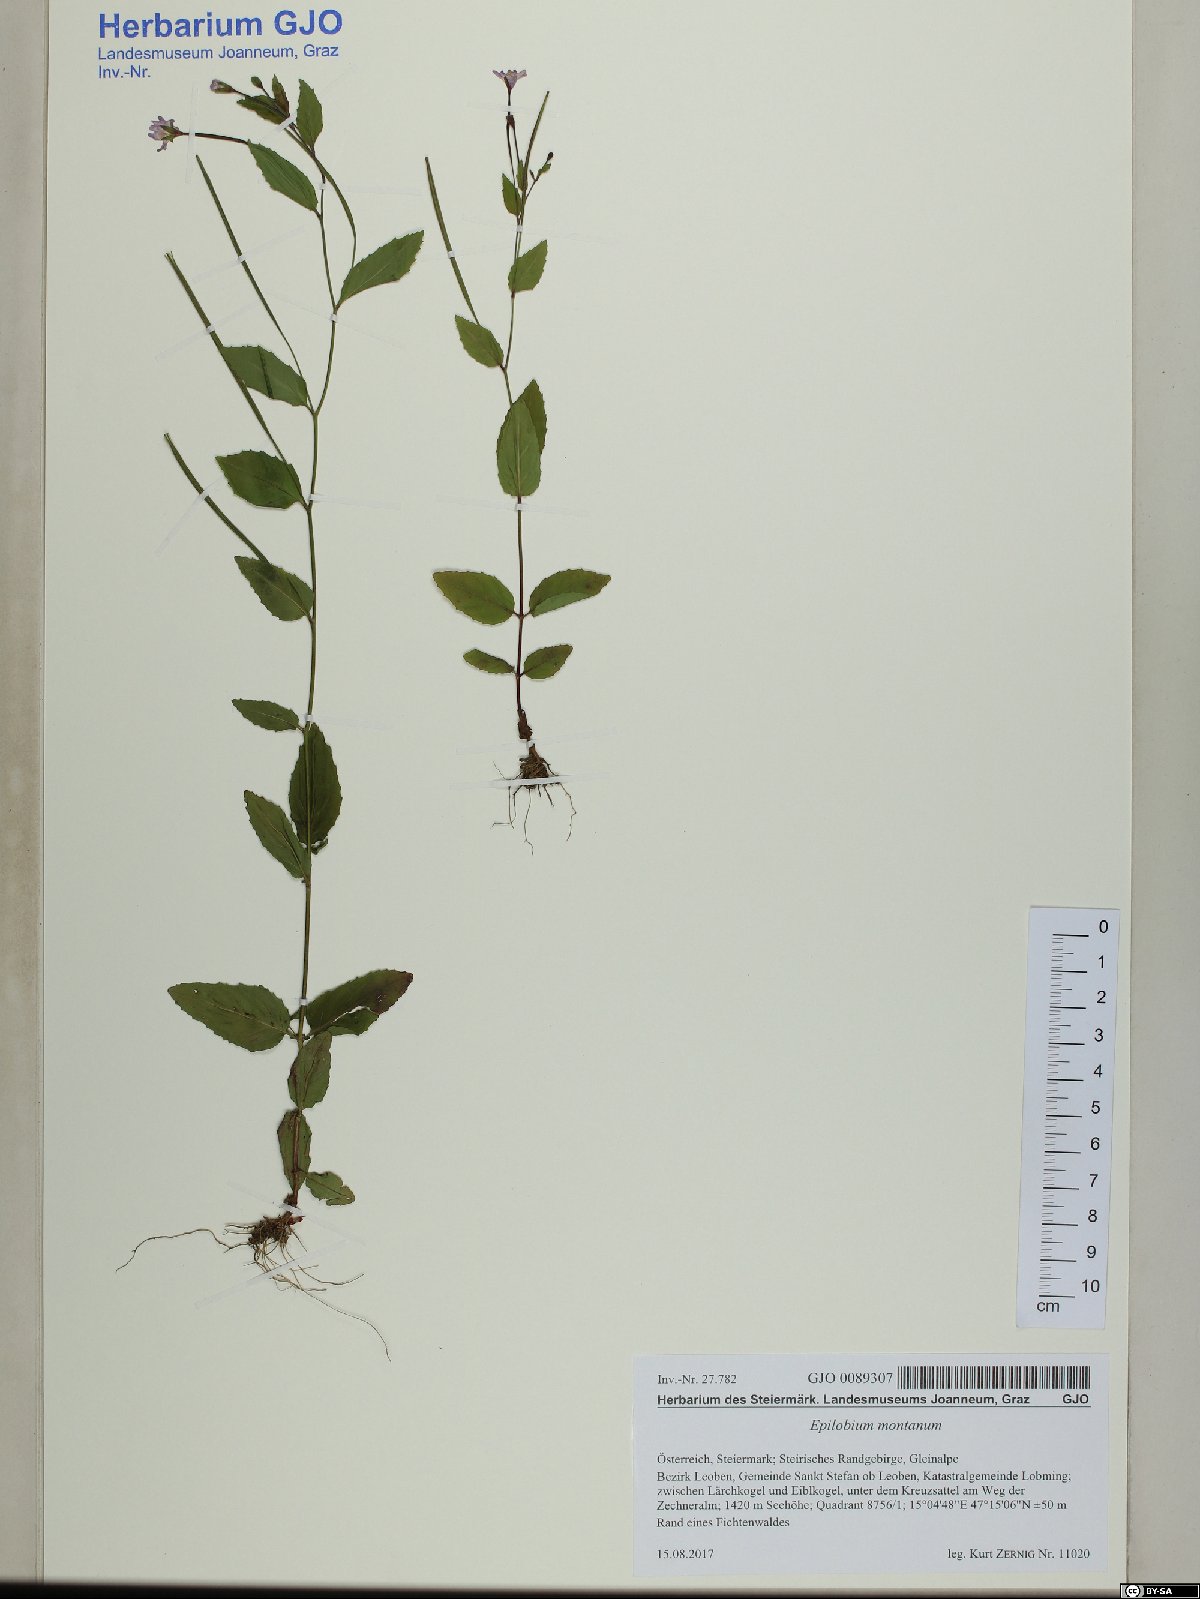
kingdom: Plantae
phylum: Tracheophyta
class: Magnoliopsida
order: Myrtales
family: Onagraceae
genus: Epilobium
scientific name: Epilobium montanum
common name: Broad-leaved willowherb
